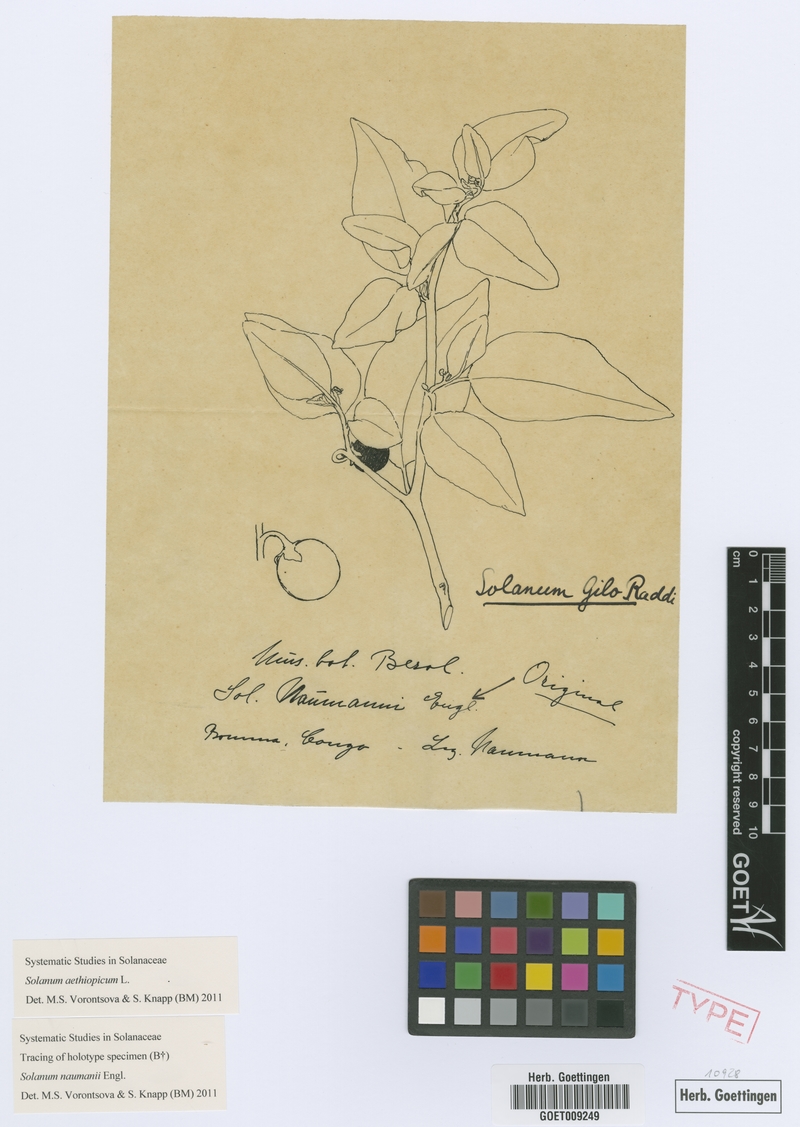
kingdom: Plantae
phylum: Tracheophyta
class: Magnoliopsida
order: Solanales
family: Solanaceae
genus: Solanum
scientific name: Solanum aethiopicum
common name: Gilo
